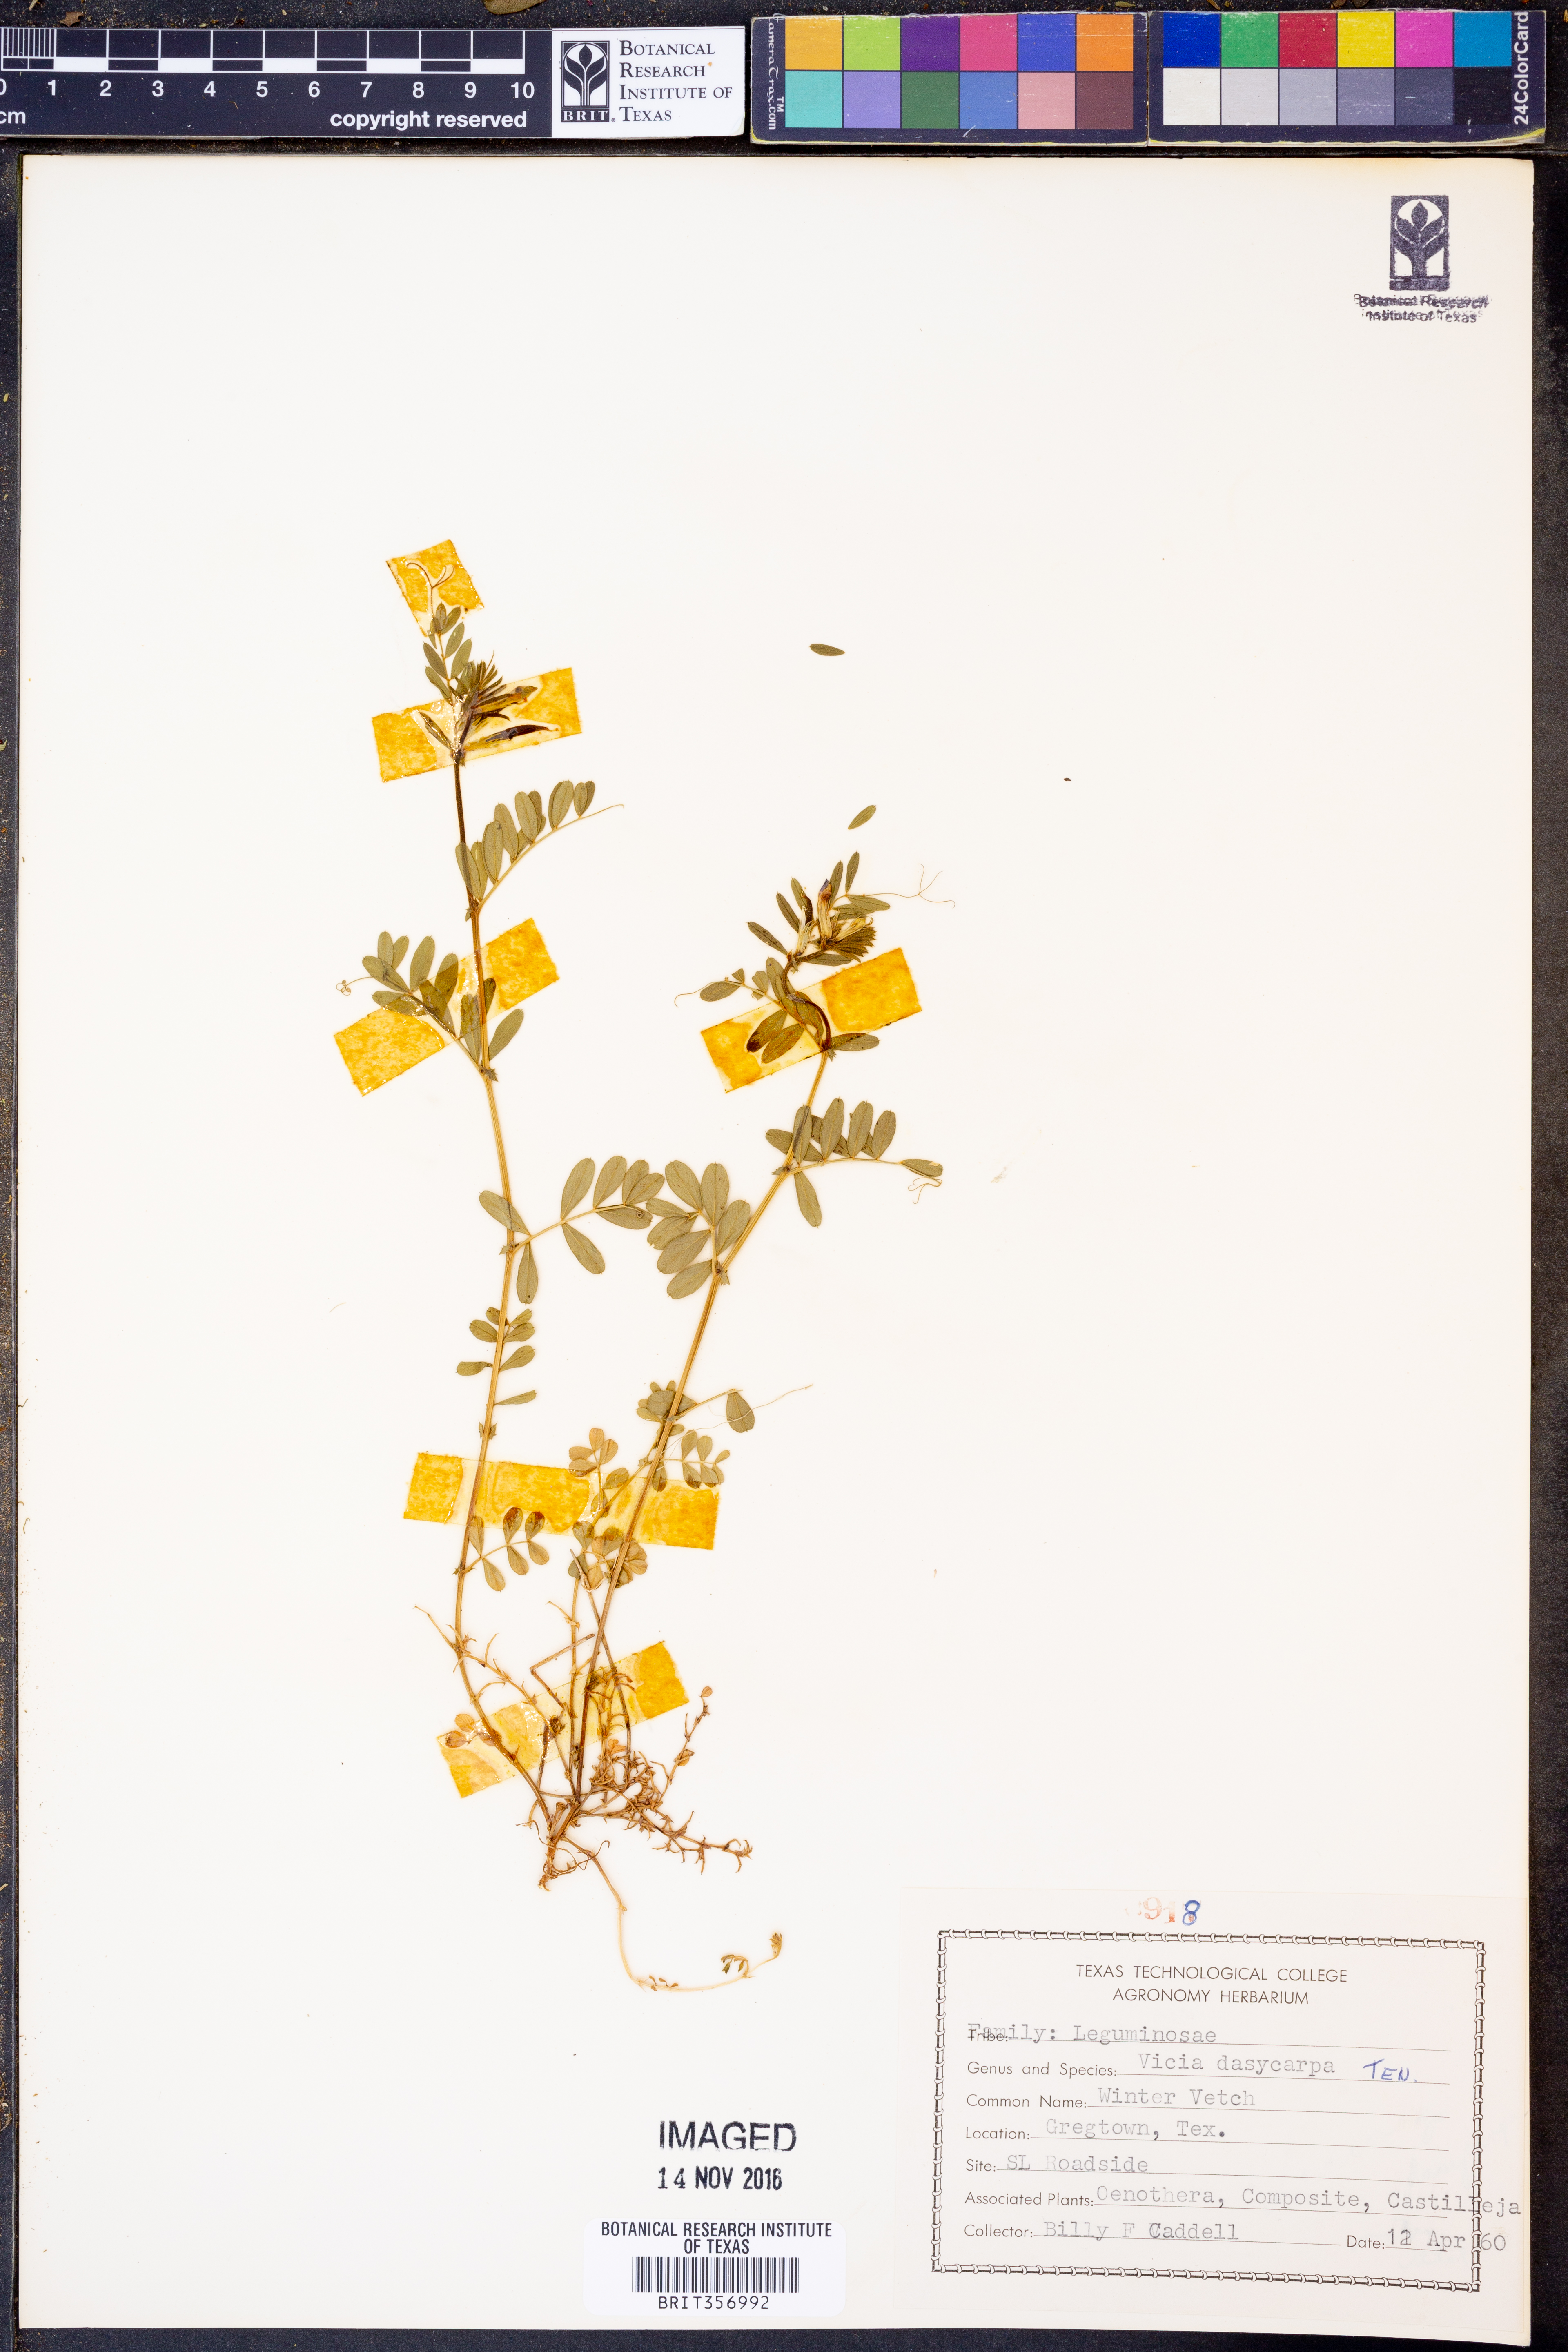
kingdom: Plantae
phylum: Tracheophyta
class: Magnoliopsida
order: Fabales
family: Fabaceae
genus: Vicia
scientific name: Vicia villosa
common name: Fodder vetch
